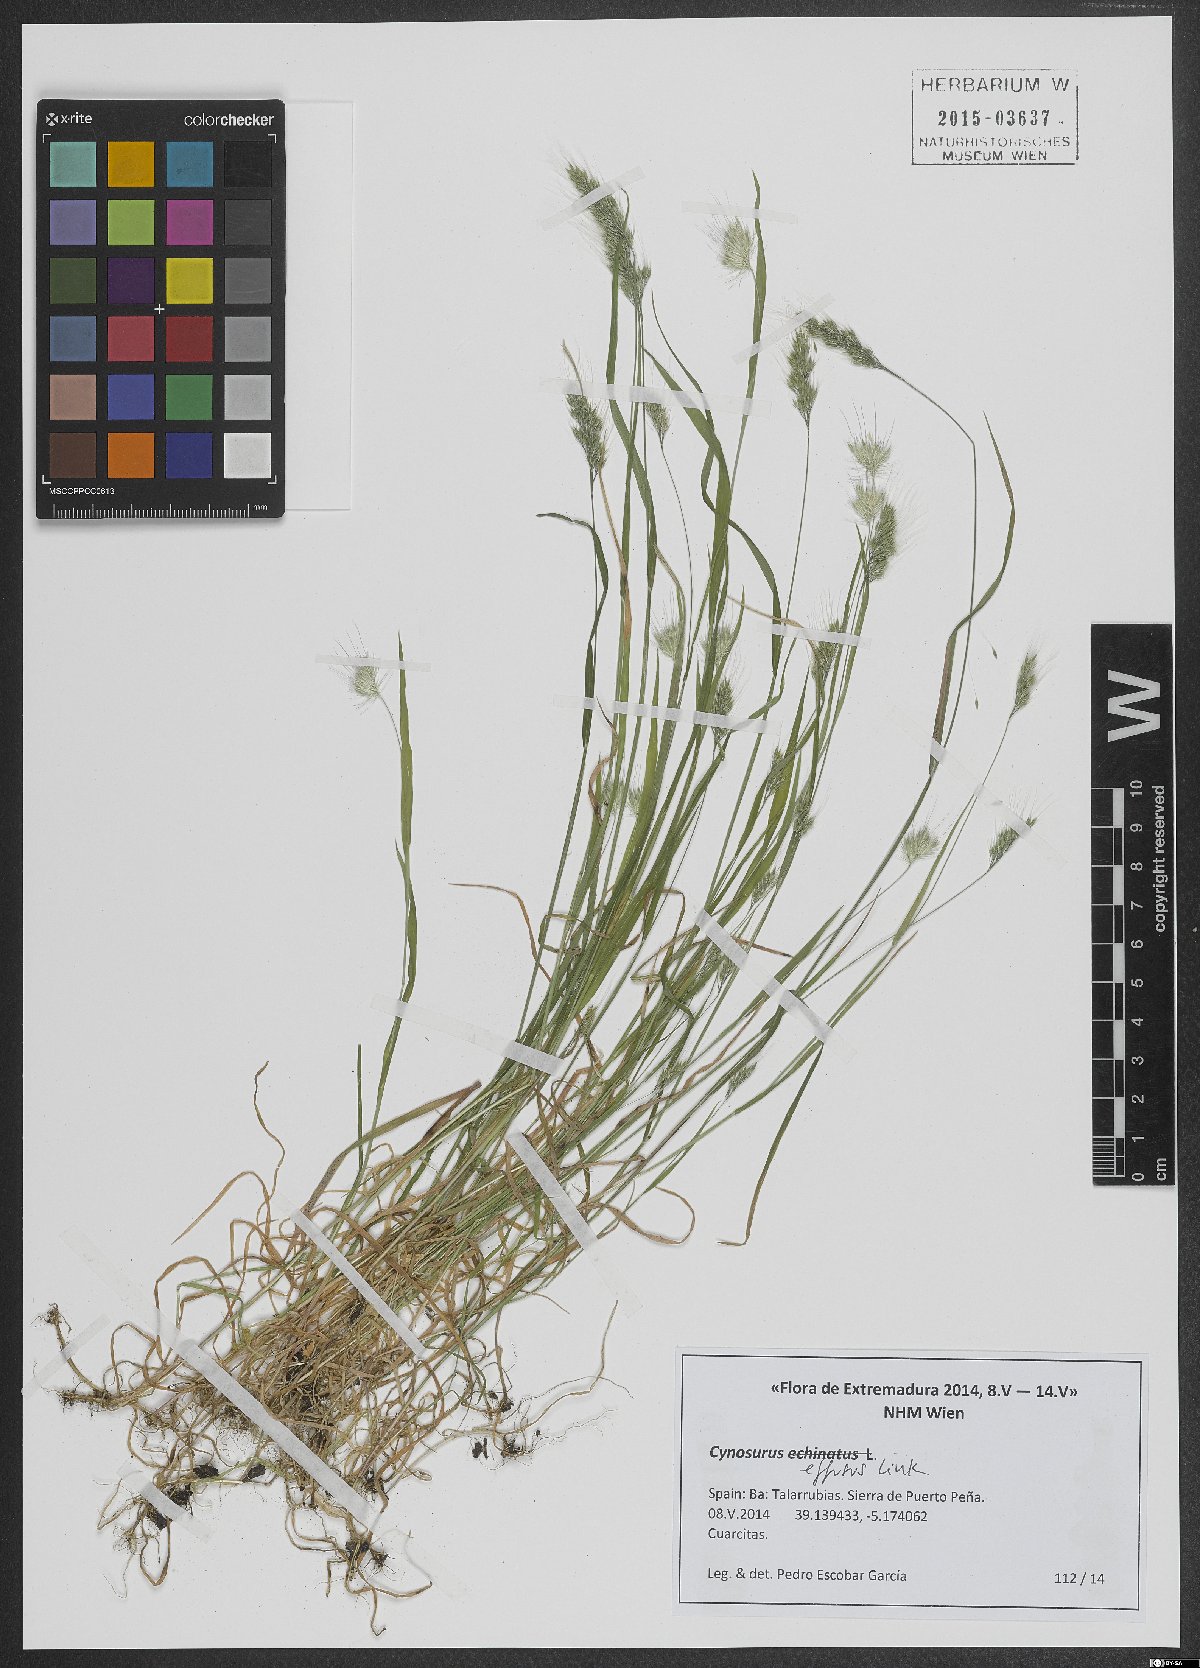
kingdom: Plantae
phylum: Tracheophyta
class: Liliopsida
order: Poales
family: Poaceae
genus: Cynosurus
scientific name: Cynosurus effusus
